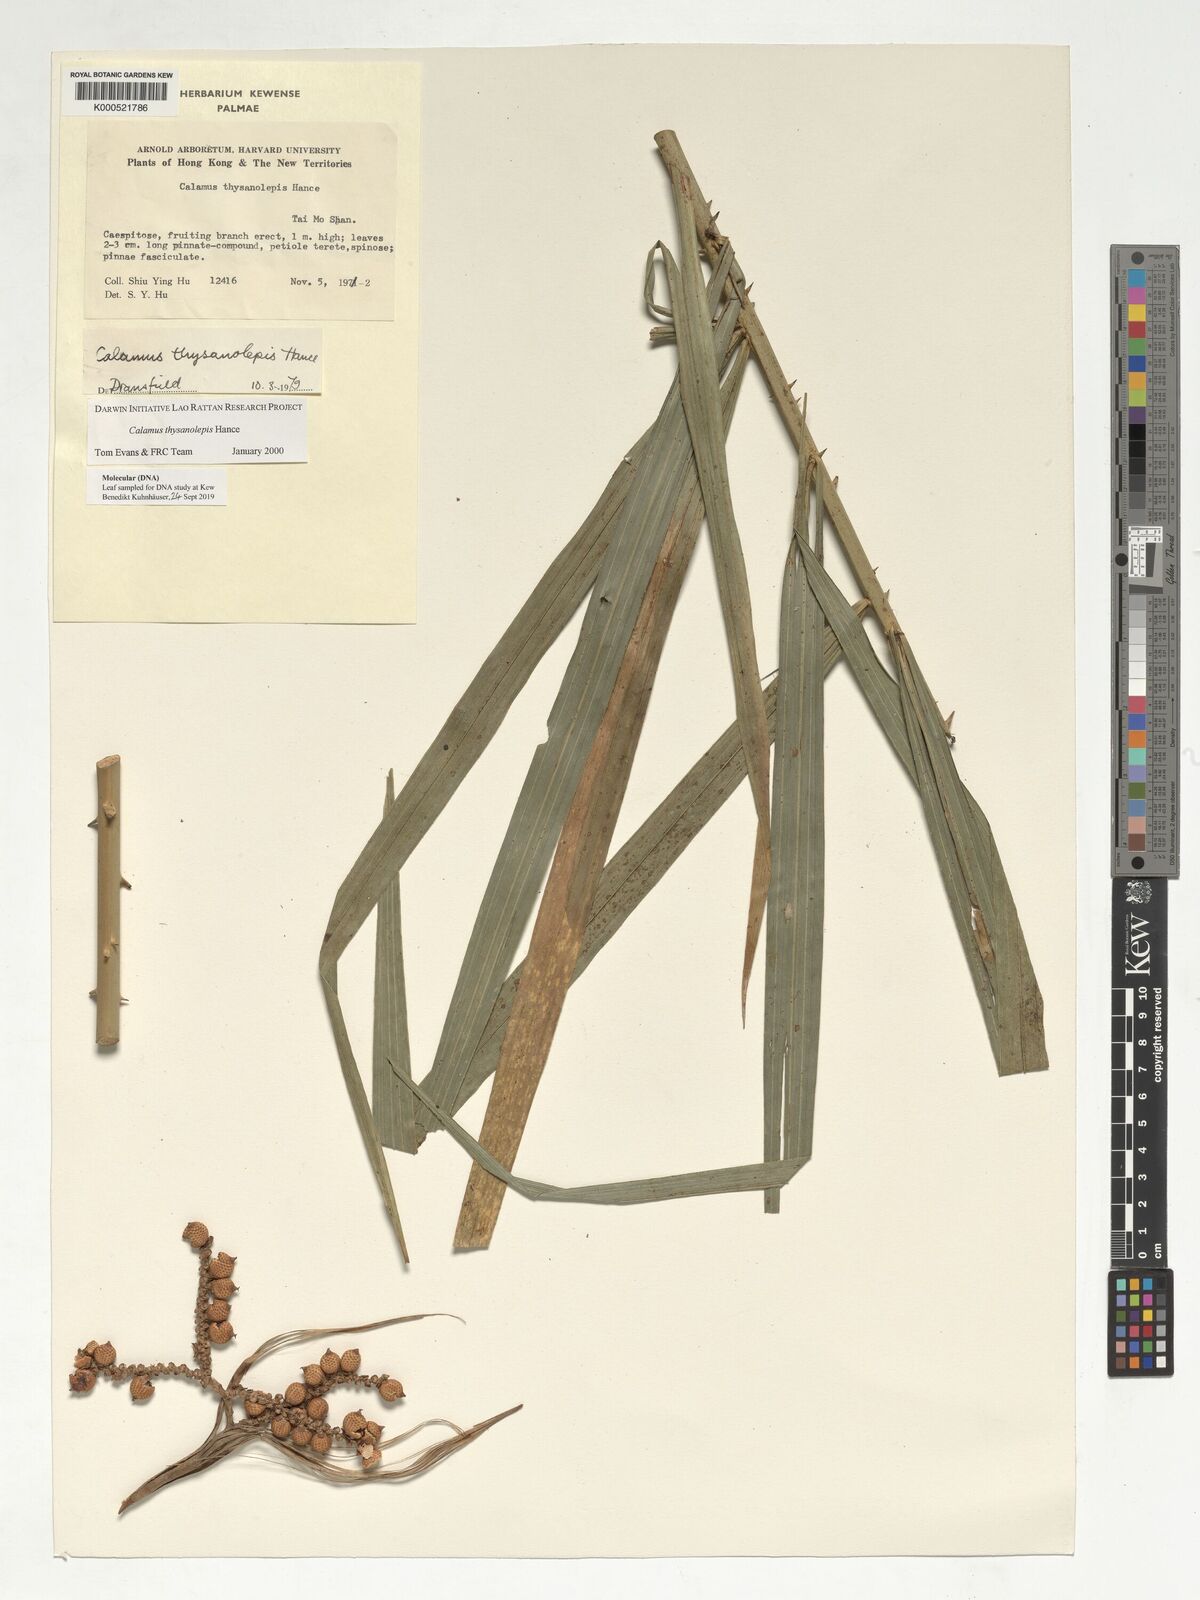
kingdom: Plantae
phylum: Tracheophyta
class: Liliopsida
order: Arecales
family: Arecaceae
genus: Calamus
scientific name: Calamus thysanolepis
